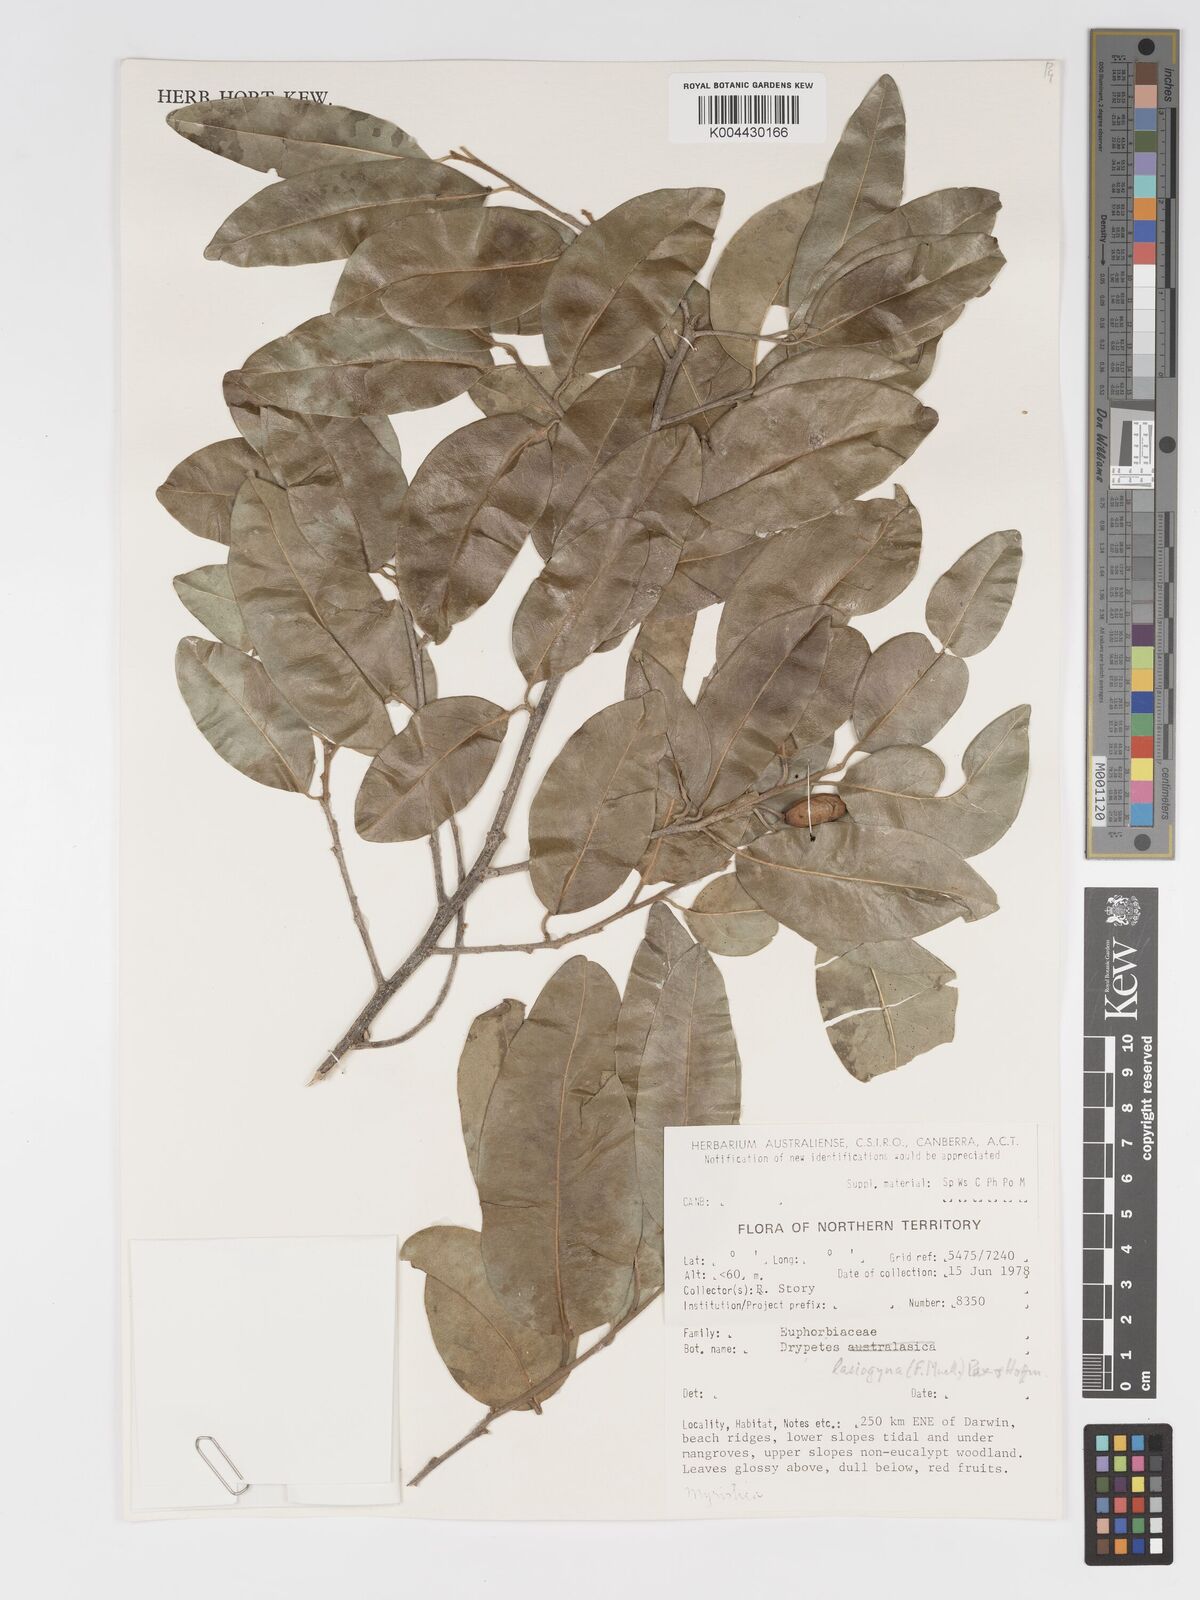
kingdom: Plantae
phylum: Tracheophyta
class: Magnoliopsida
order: Malpighiales
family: Putranjivaceae
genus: Drypetes
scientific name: Drypetes deplanchei
